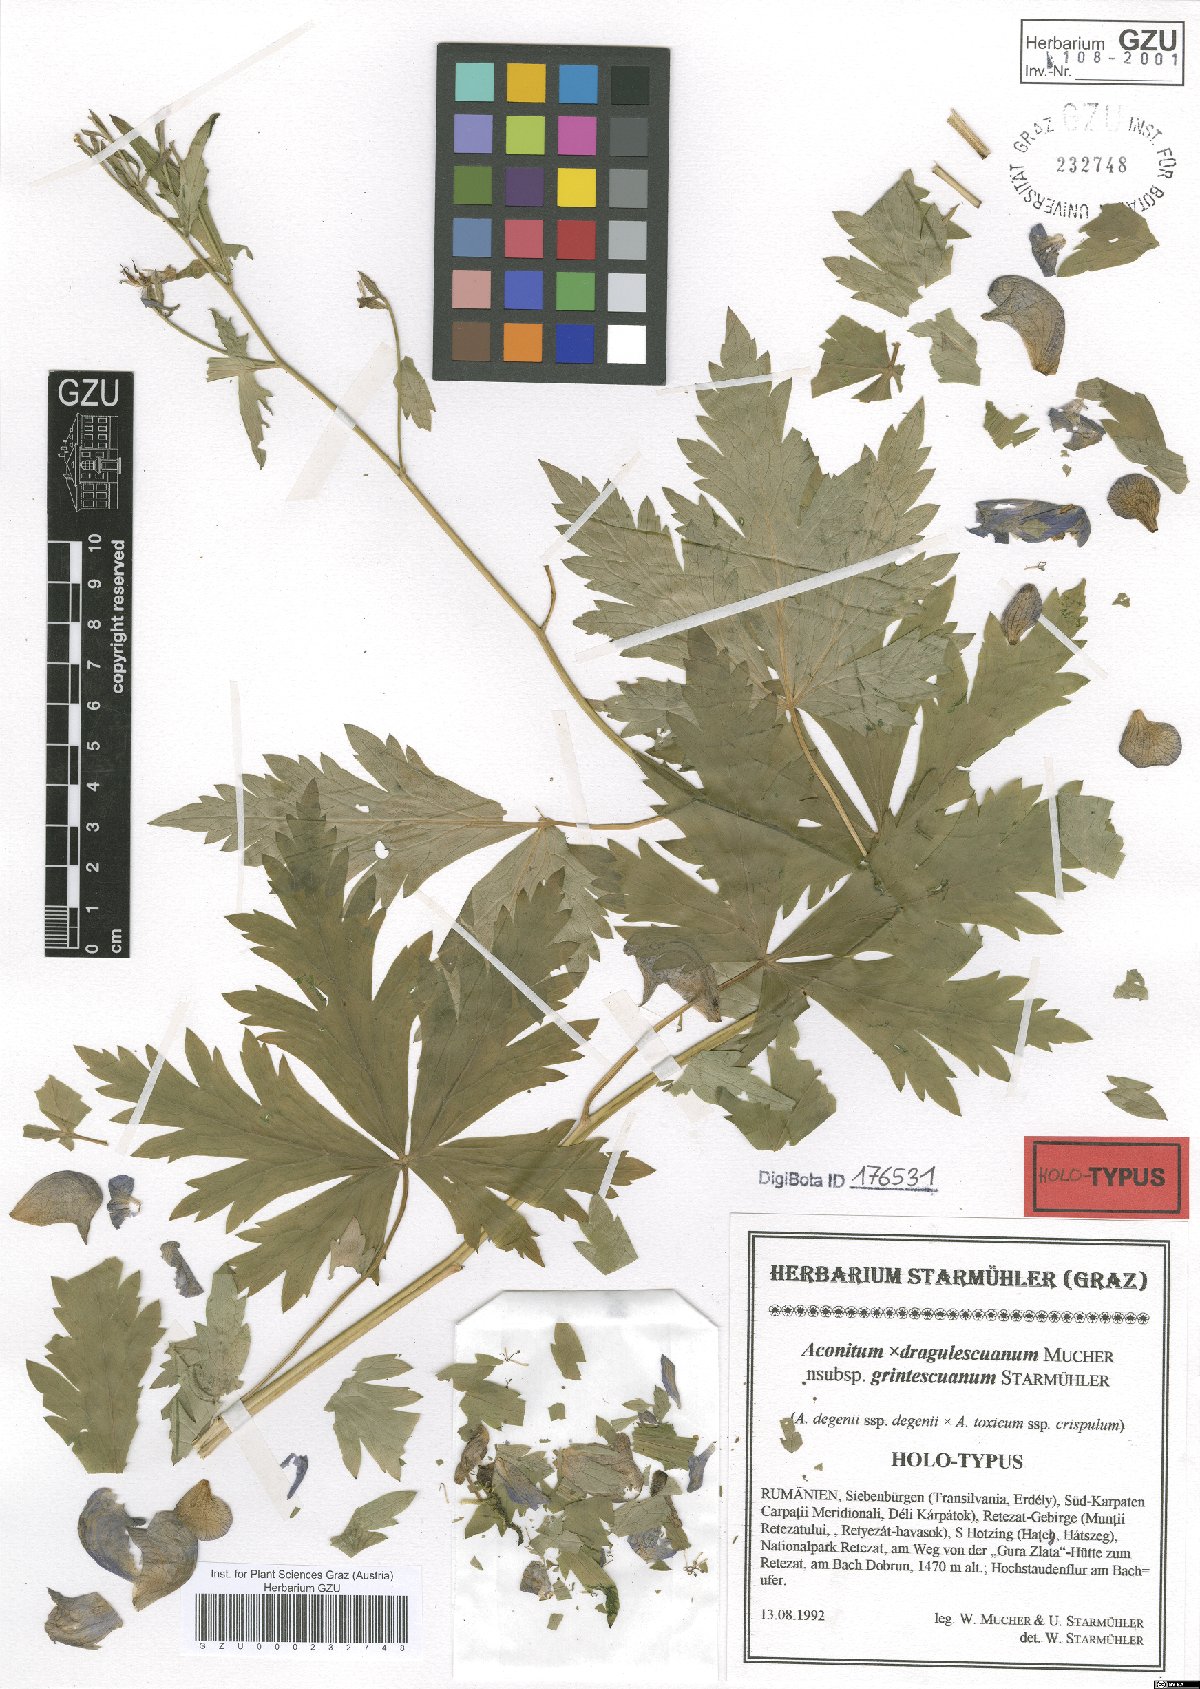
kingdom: Plantae
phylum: Tracheophyta
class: Magnoliopsida
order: Ranunculales
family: Ranunculaceae
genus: Aconitum
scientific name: Aconitum dragulescuanum
